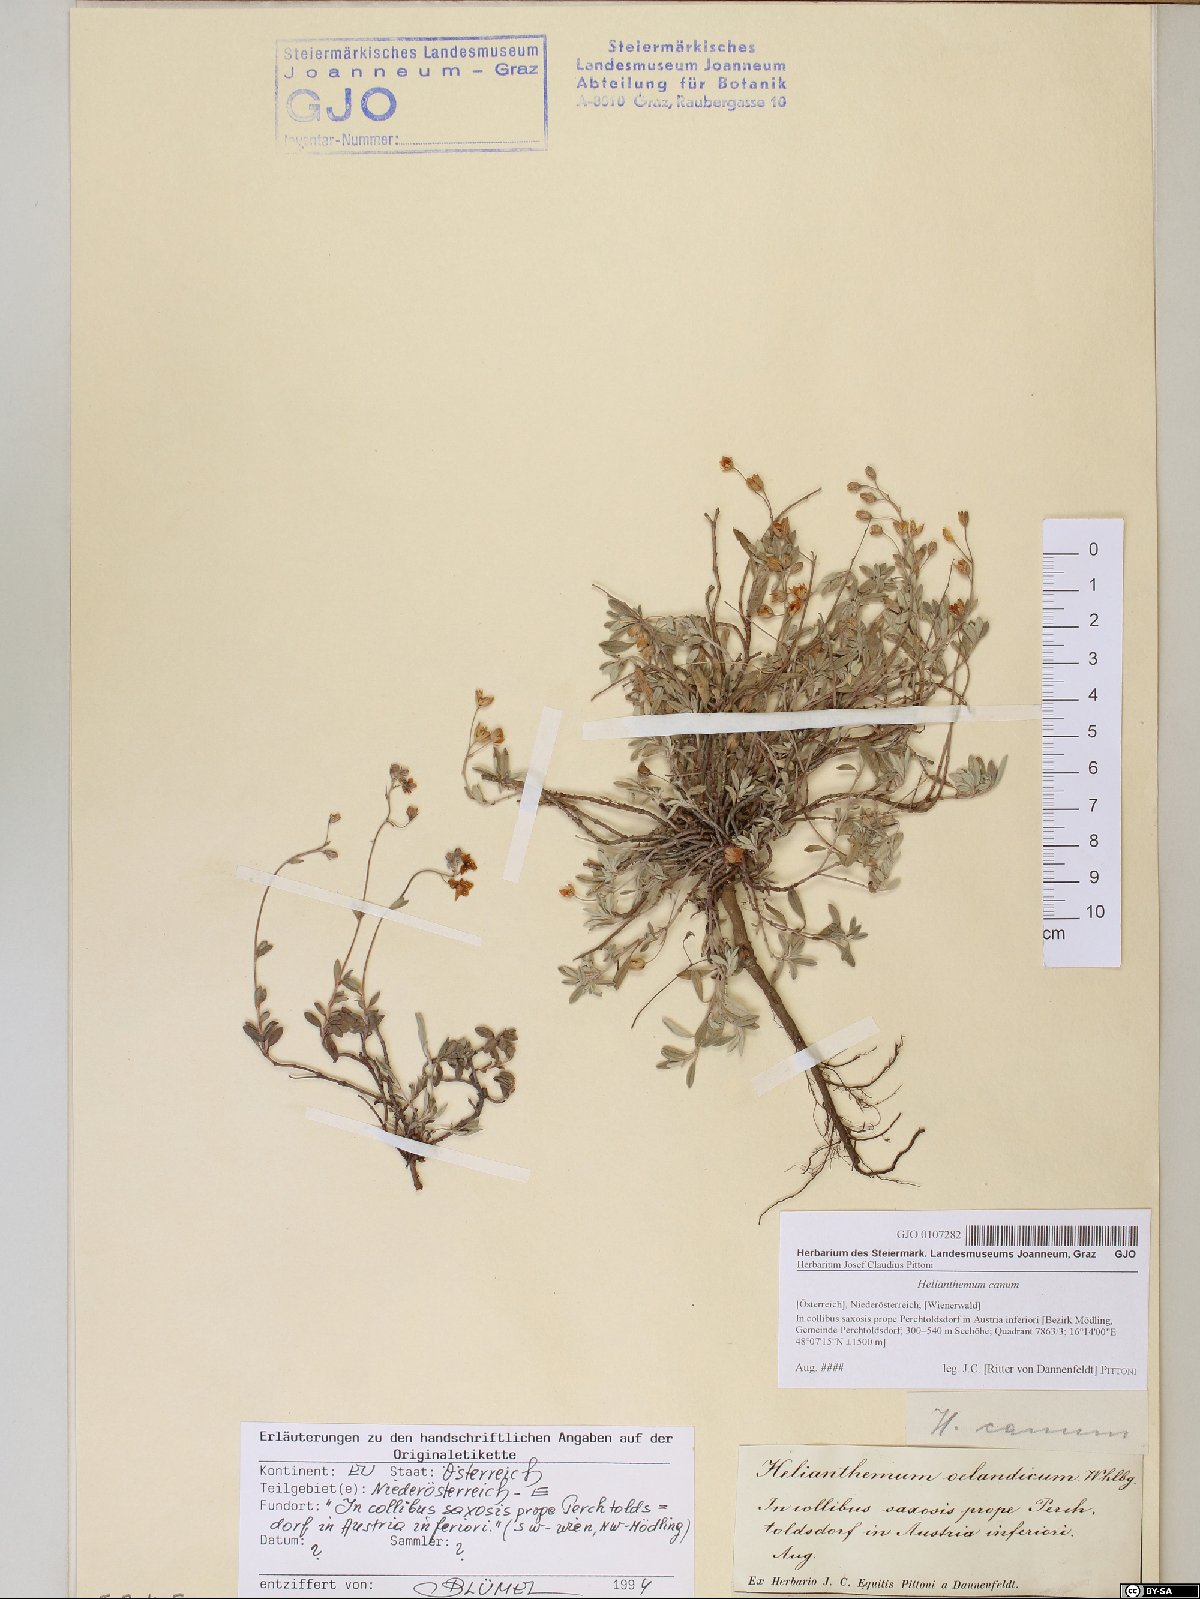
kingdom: Plantae
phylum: Tracheophyta
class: Magnoliopsida
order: Malvales
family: Cistaceae
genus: Helianthemum
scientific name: Helianthemum canum
